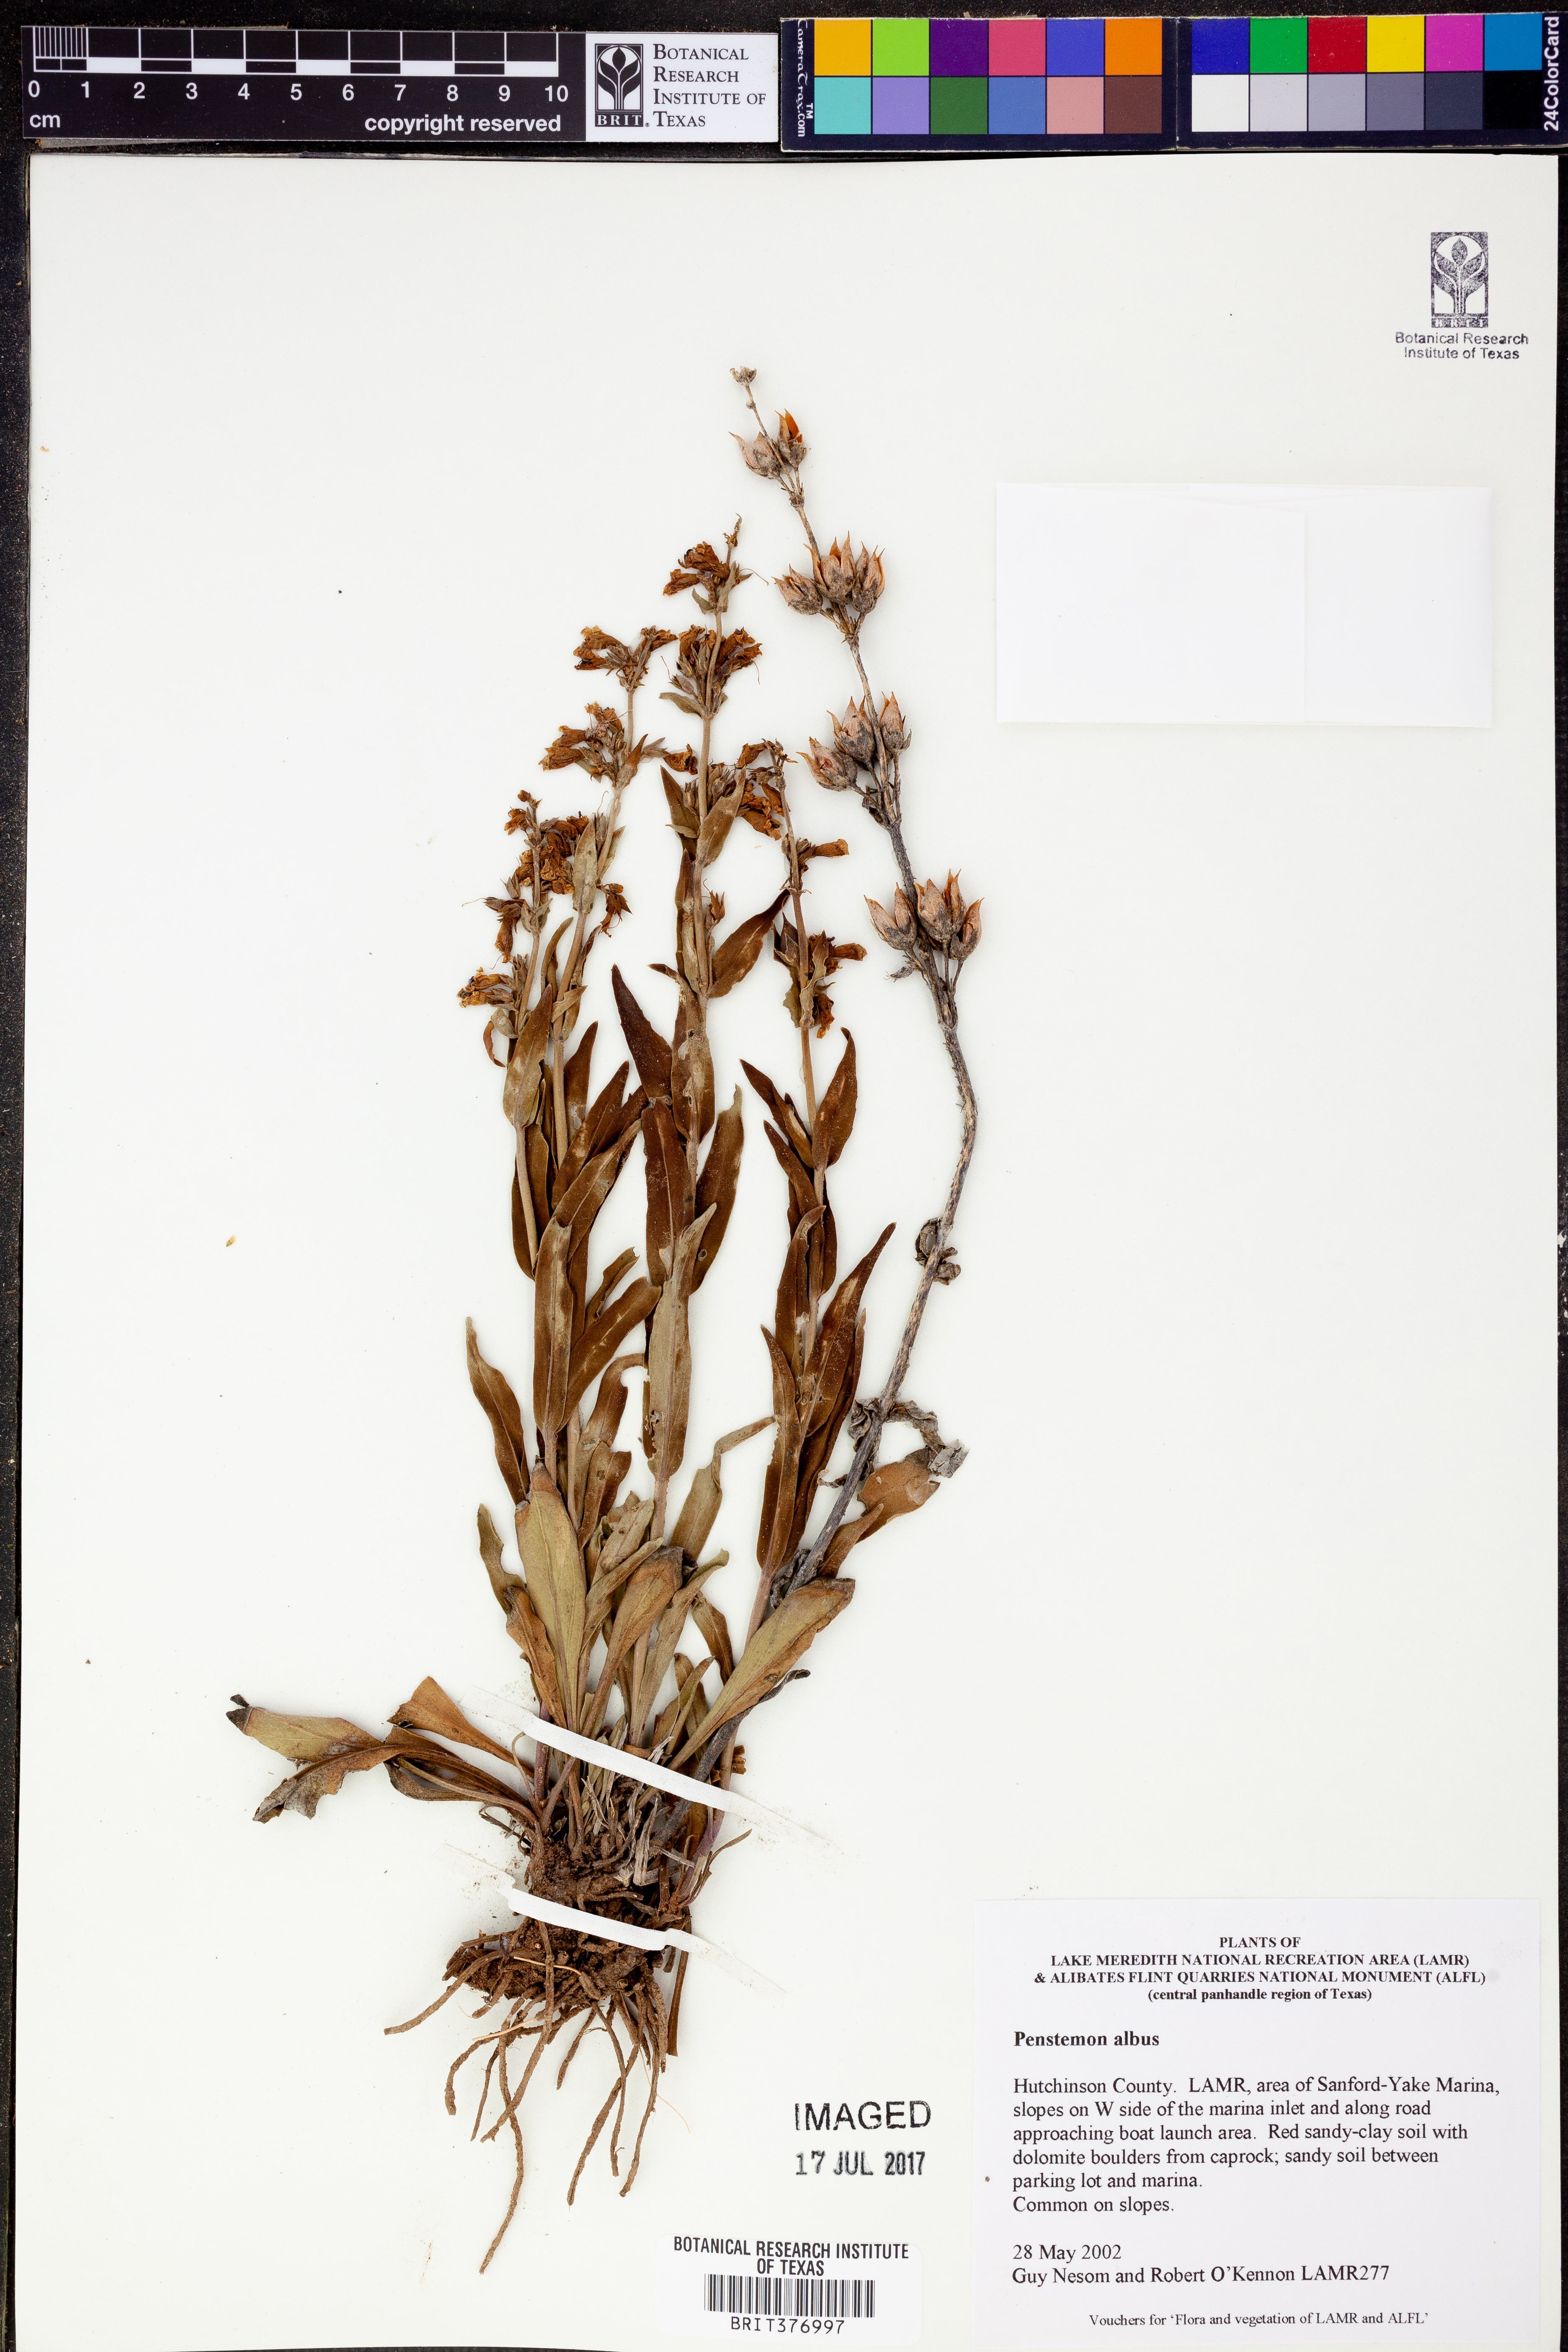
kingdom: Plantae
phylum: Tracheophyta
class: Magnoliopsida
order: Lamiales
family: Plantaginaceae
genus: Penstemon
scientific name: Penstemon albidus
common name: White beardtongue
